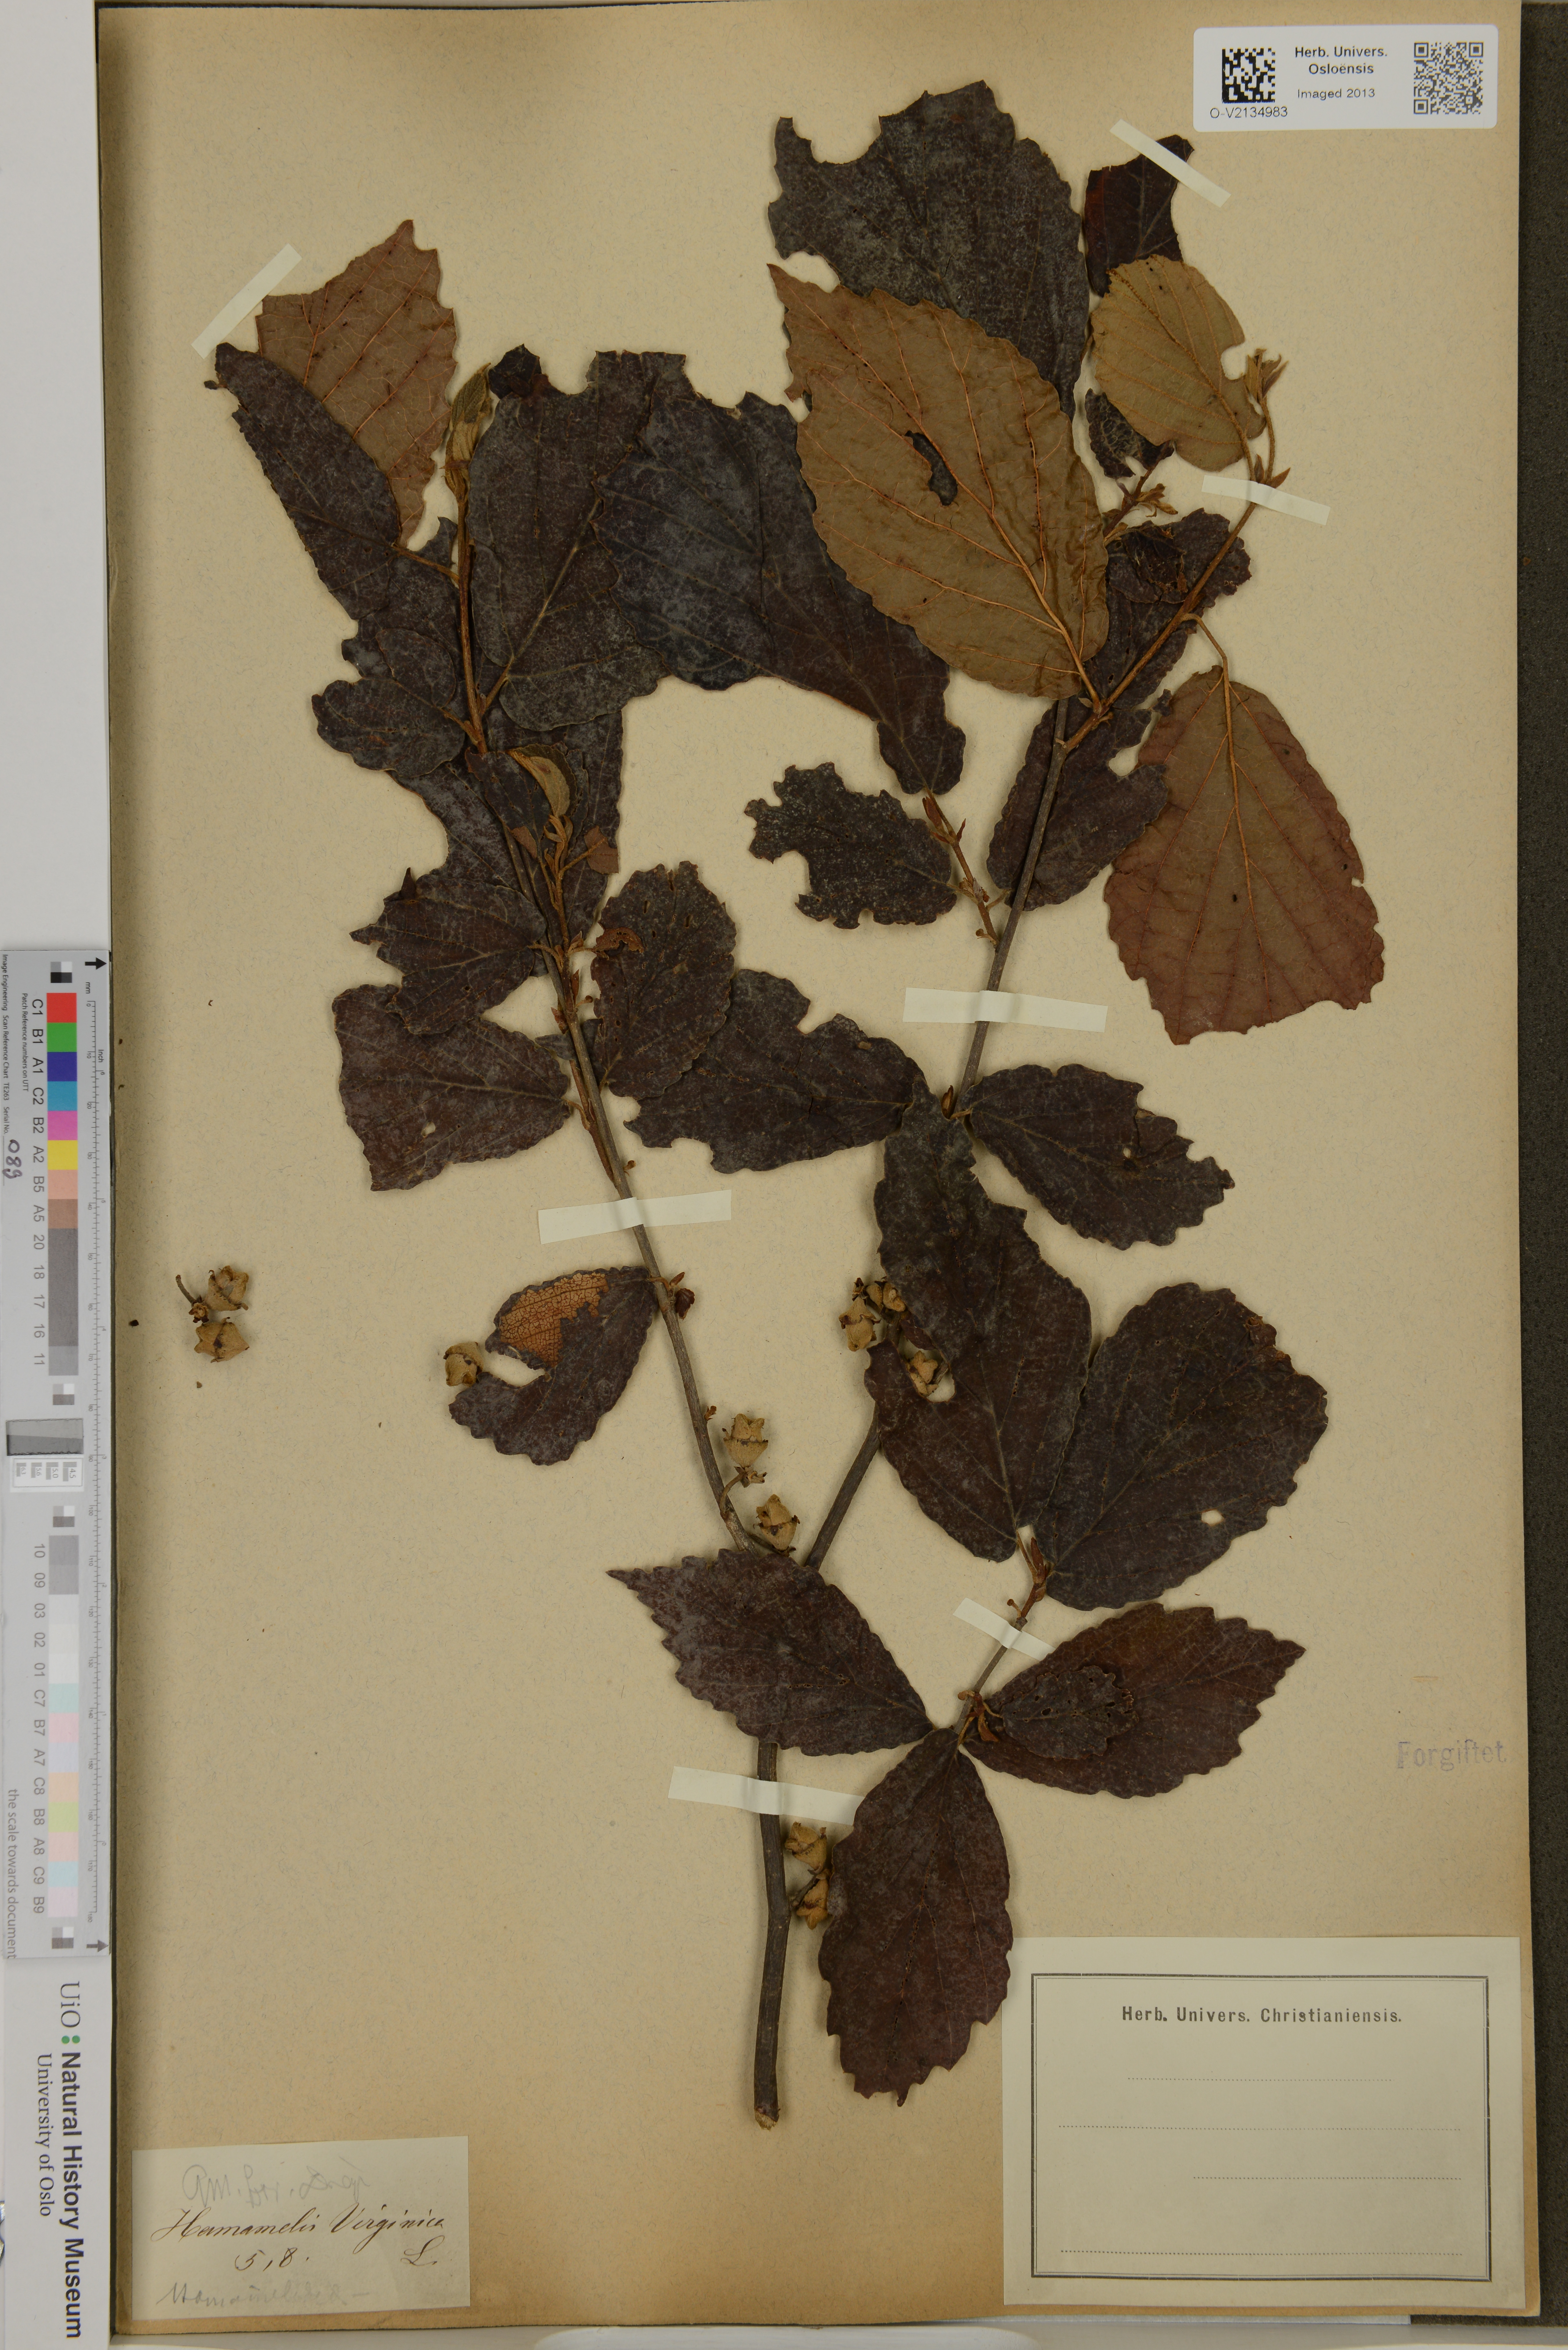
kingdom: Plantae
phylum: Tracheophyta
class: Magnoliopsida
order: Saxifragales
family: Hamamelidaceae
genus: Hamamelis
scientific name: Hamamelis virginiana
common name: Witch-hazel
